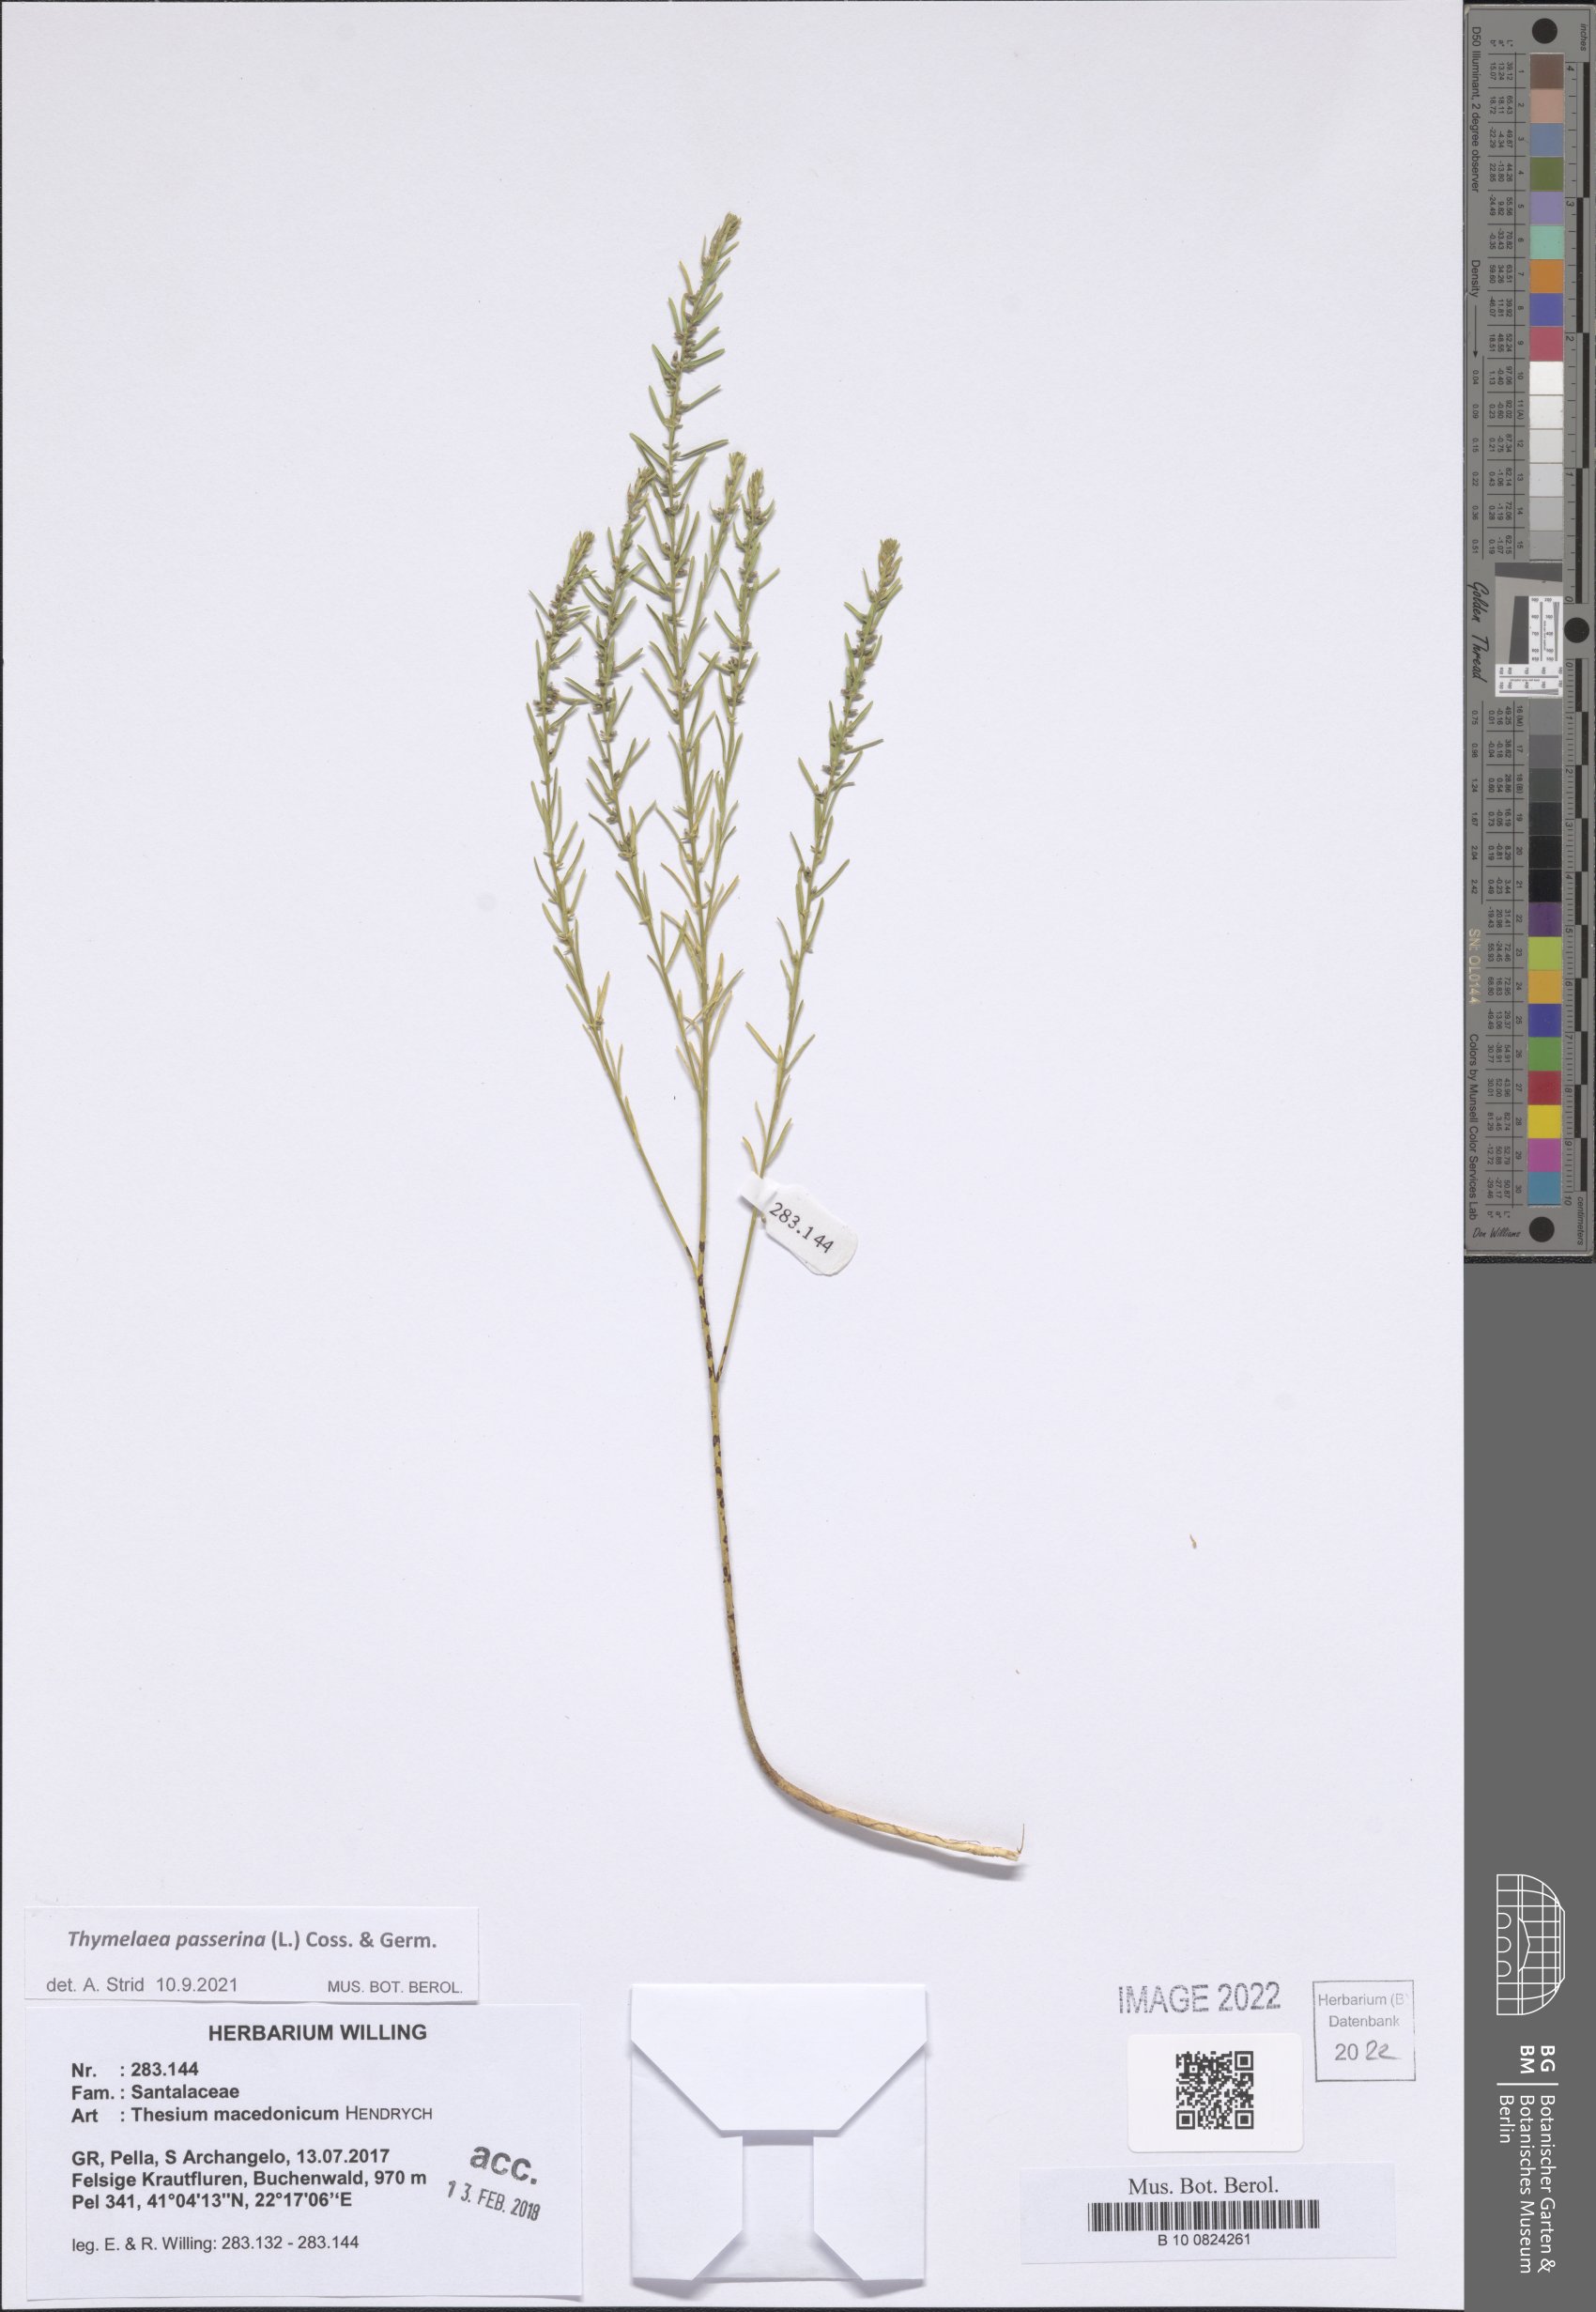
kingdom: Plantae
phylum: Tracheophyta
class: Magnoliopsida
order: Malvales
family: Thymelaeaceae
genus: Thymelaea
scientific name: Thymelaea passerina
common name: Annual thymelaea
